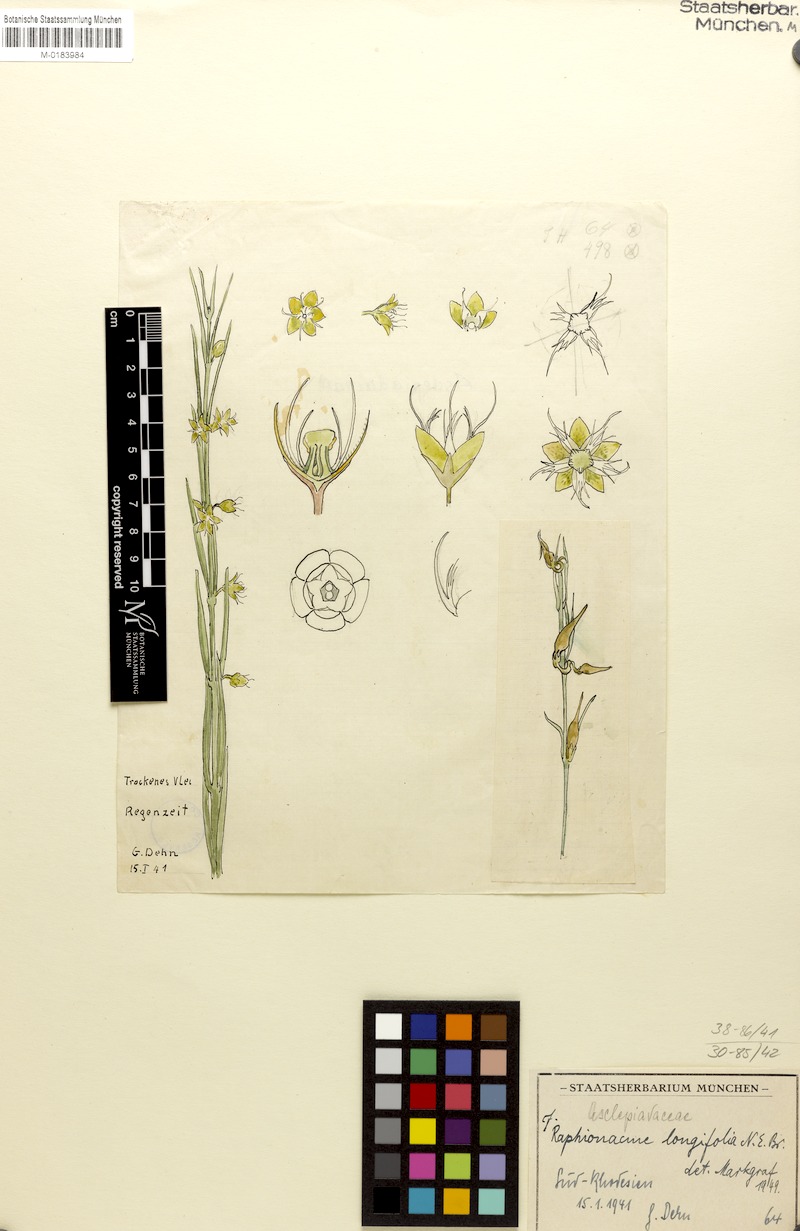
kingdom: Plantae
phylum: Tracheophyta
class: Magnoliopsida
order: Gentianales
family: Apocynaceae
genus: Raphionacme
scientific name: Raphionacme longifolia
